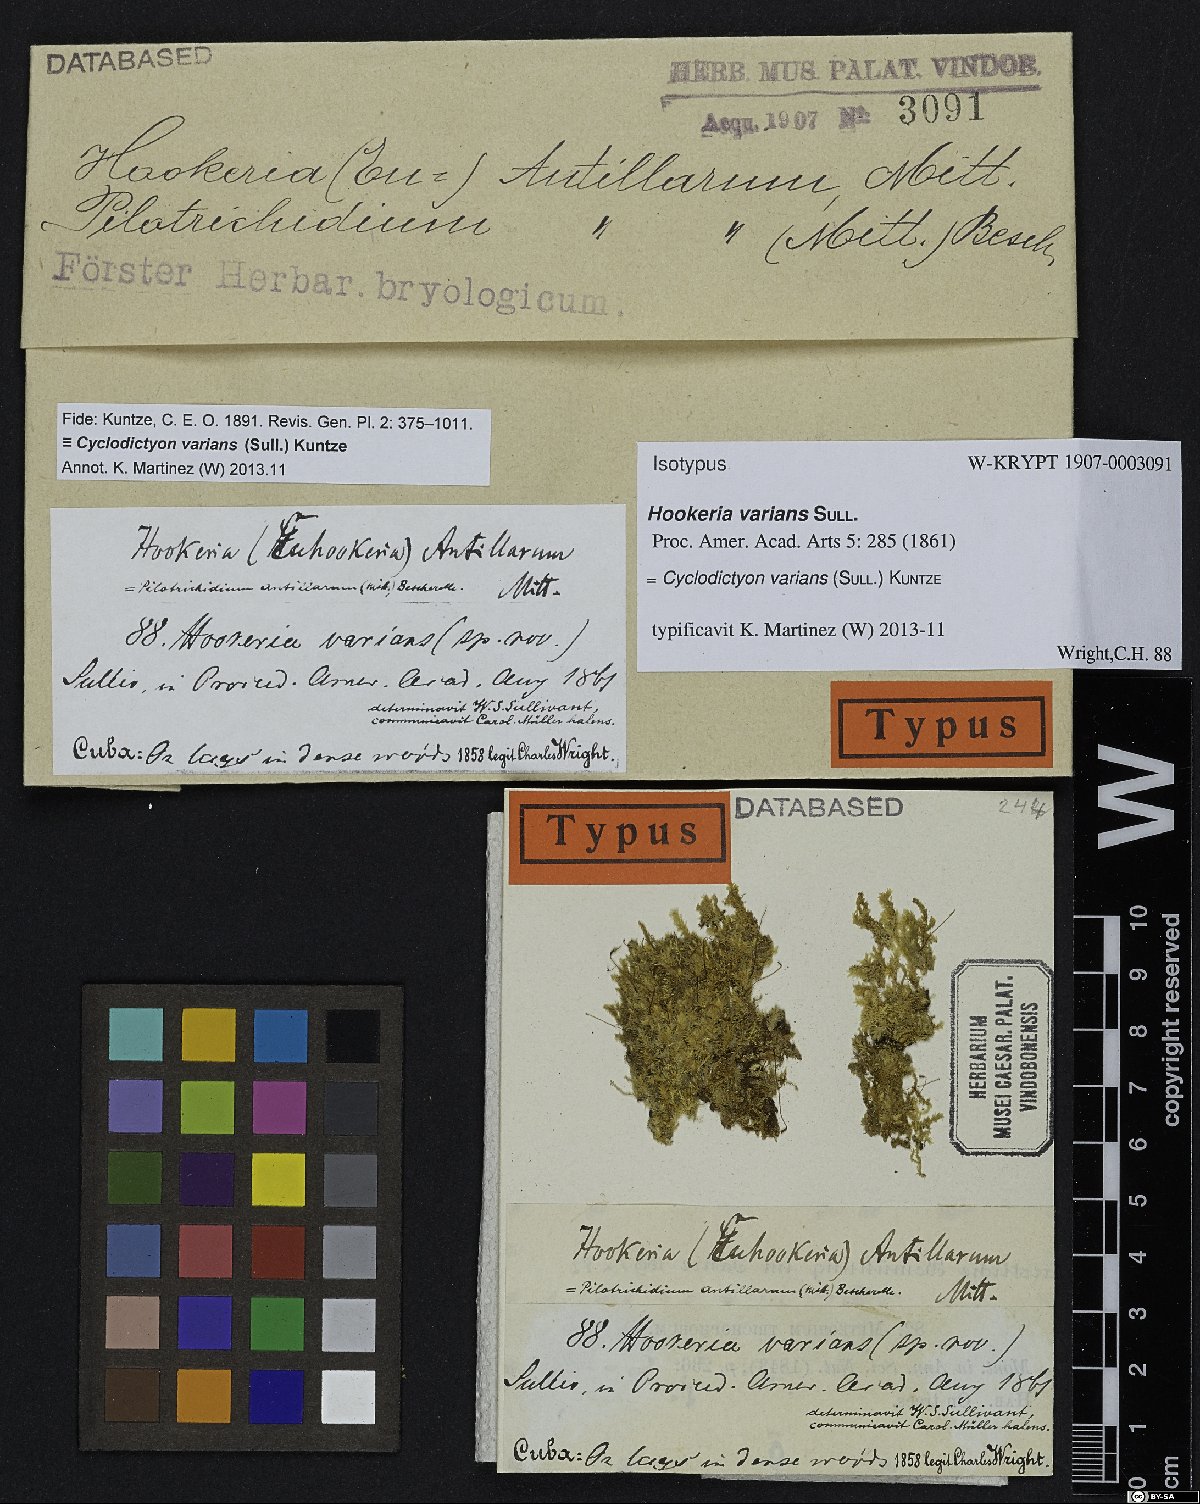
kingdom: Plantae
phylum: Bryophyta
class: Bryopsida
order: Hookeriales
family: Pilotrichaceae
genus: Cyclodictyon
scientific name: Cyclodictyon varians
